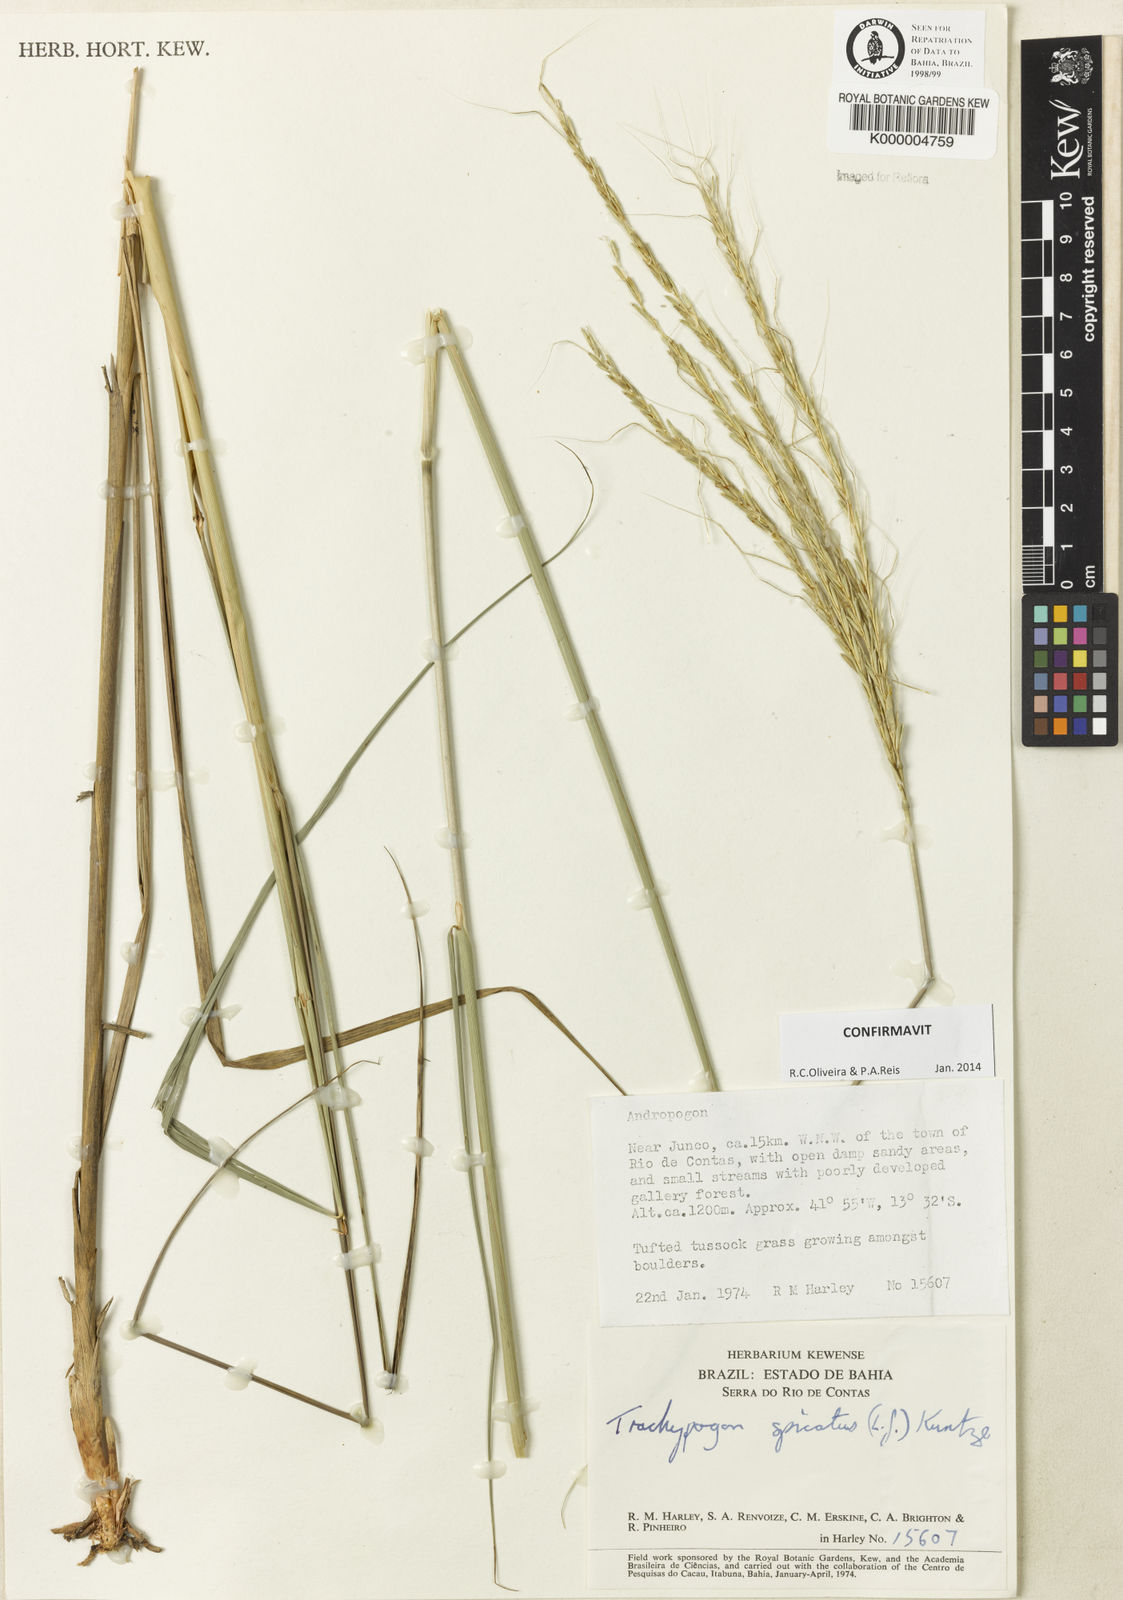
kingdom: Plantae
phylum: Tracheophyta
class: Liliopsida
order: Poales
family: Poaceae
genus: Trachypogon
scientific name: Trachypogon spicatus
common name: Crinkle-awn
